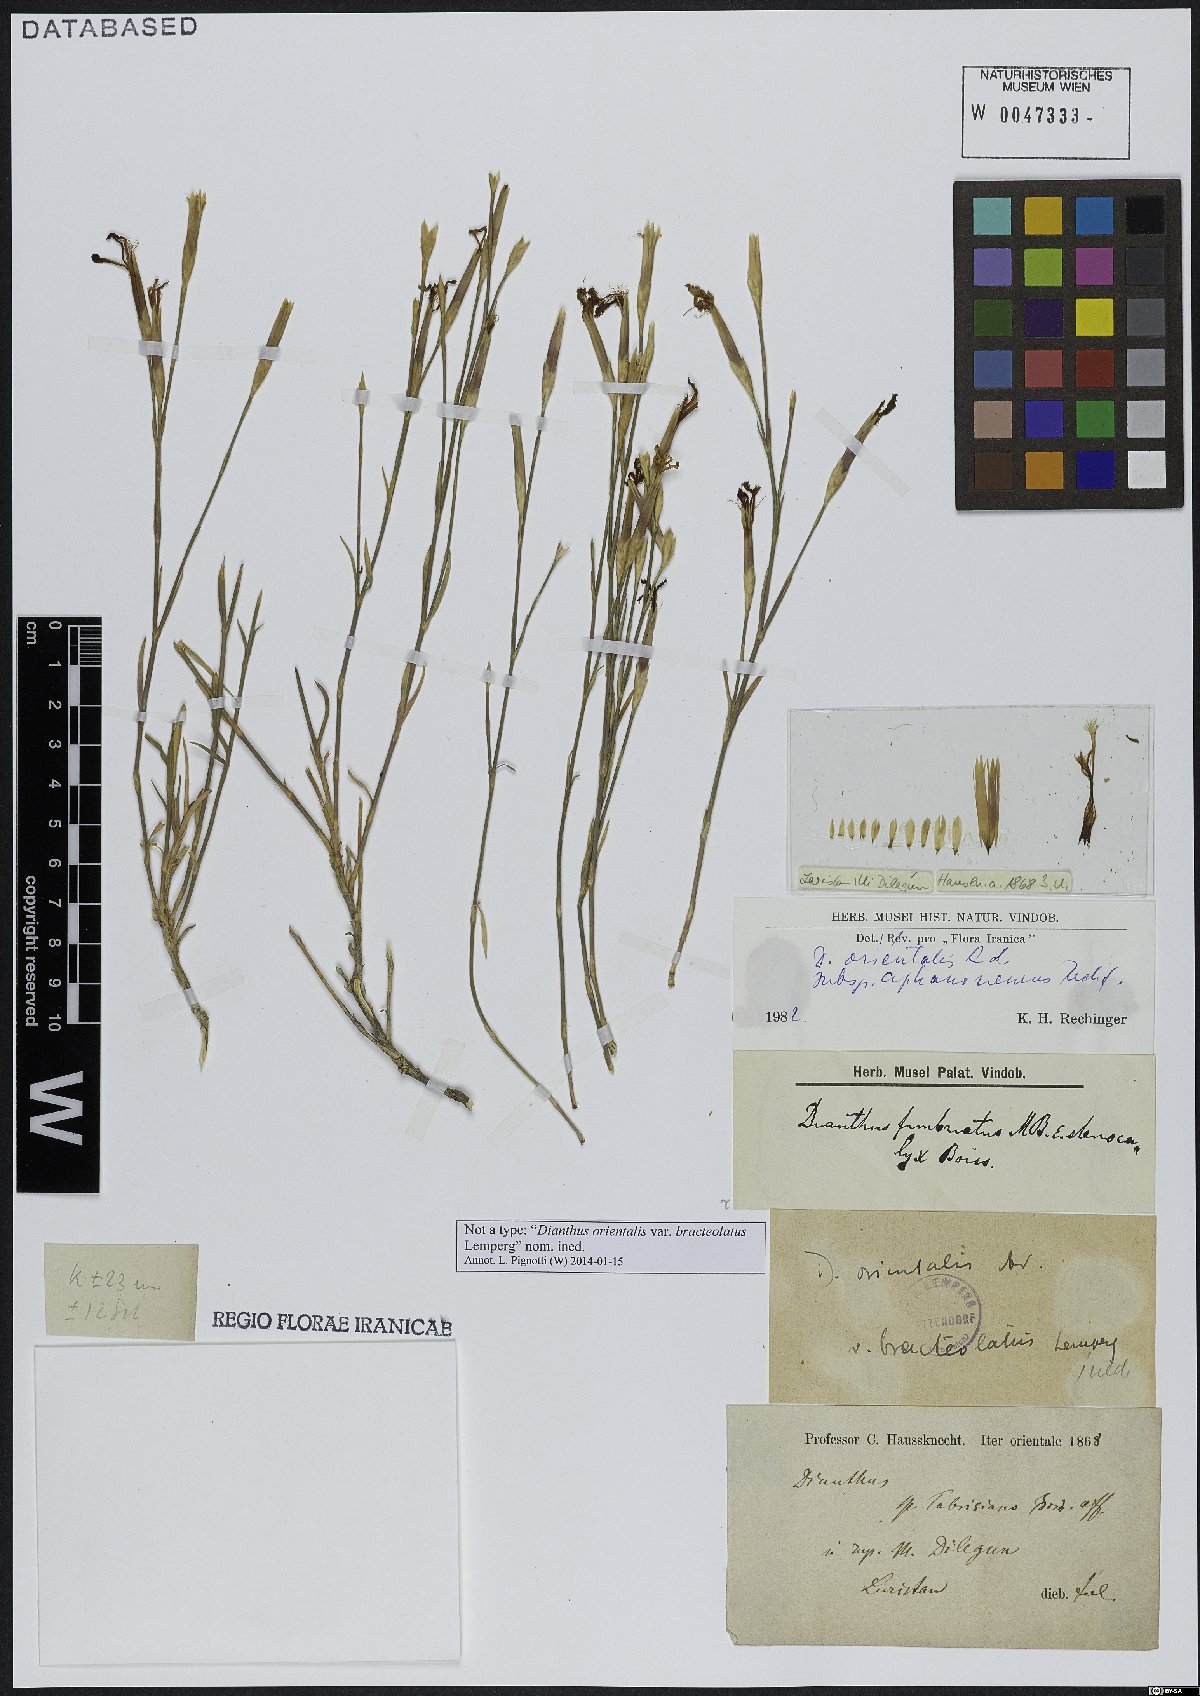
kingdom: Plantae
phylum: Tracheophyta
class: Magnoliopsida
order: Caryophyllales
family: Caryophyllaceae
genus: Dianthus
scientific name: Dianthus orientalis
